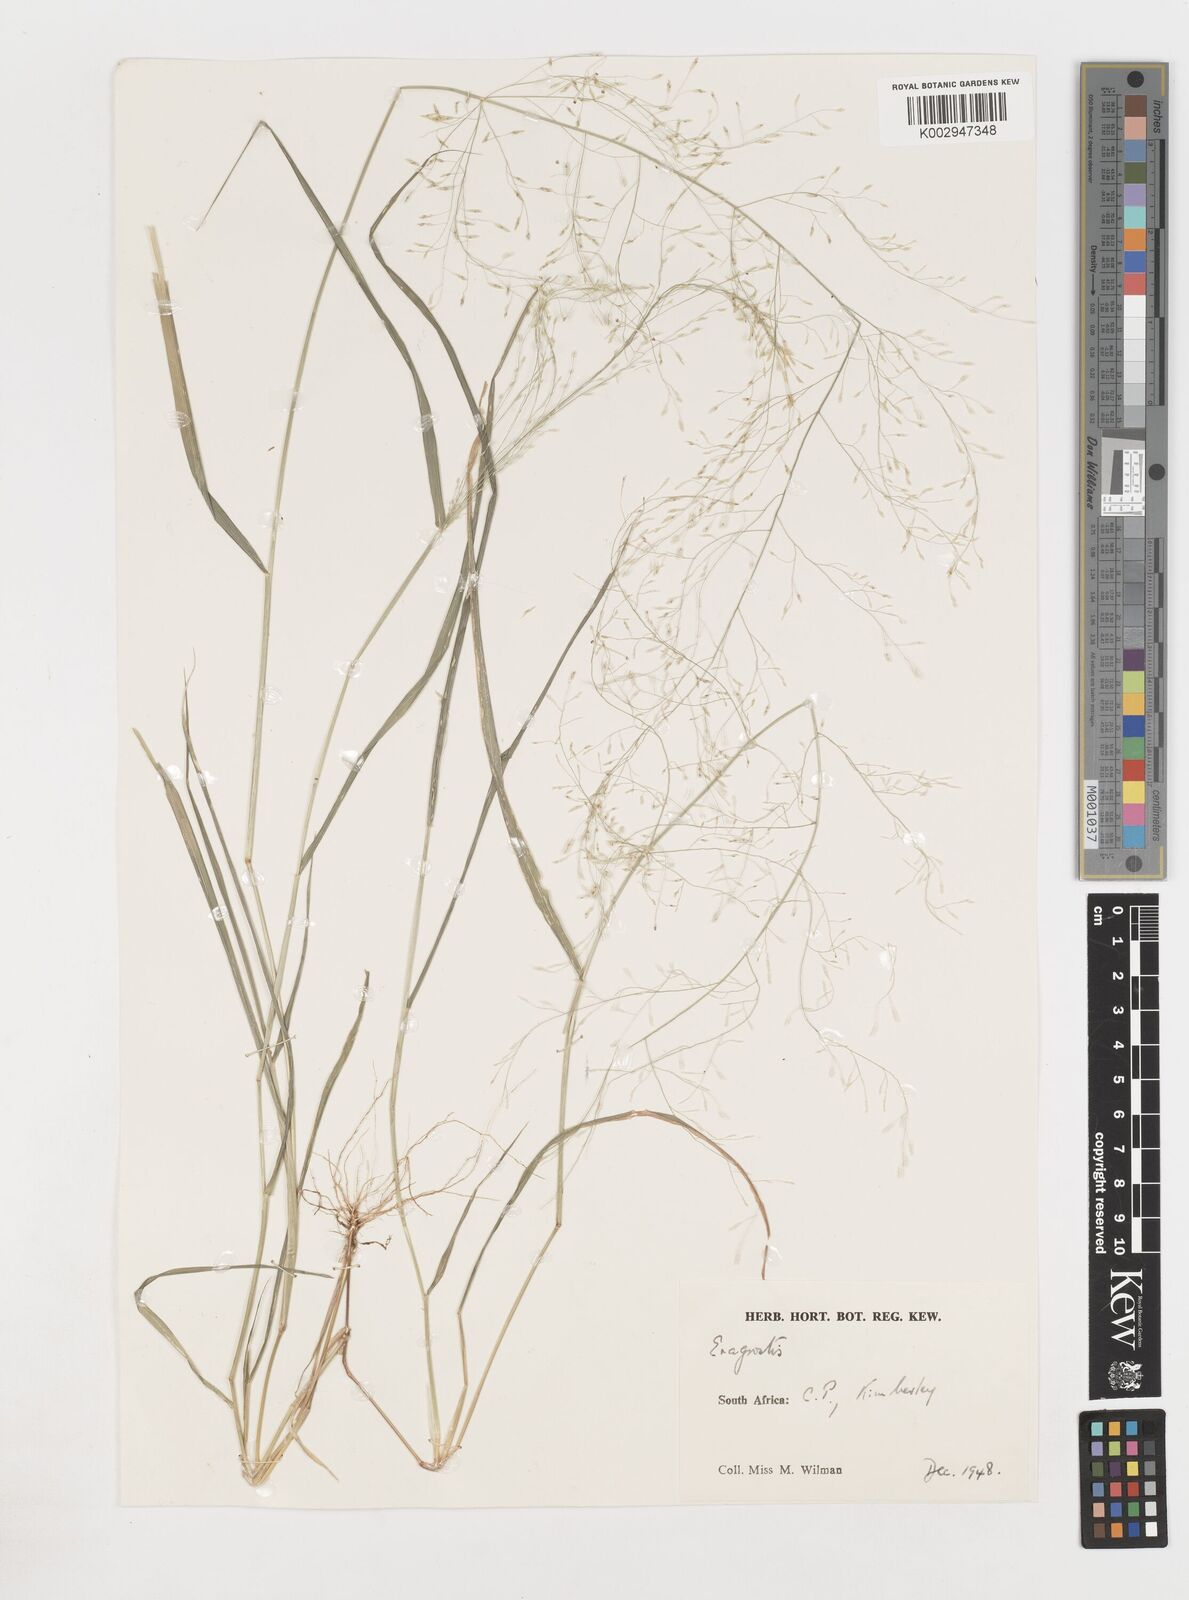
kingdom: Plantae
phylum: Tracheophyta
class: Liliopsida
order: Poales
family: Poaceae
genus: Eragrostis
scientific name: Eragrostis
